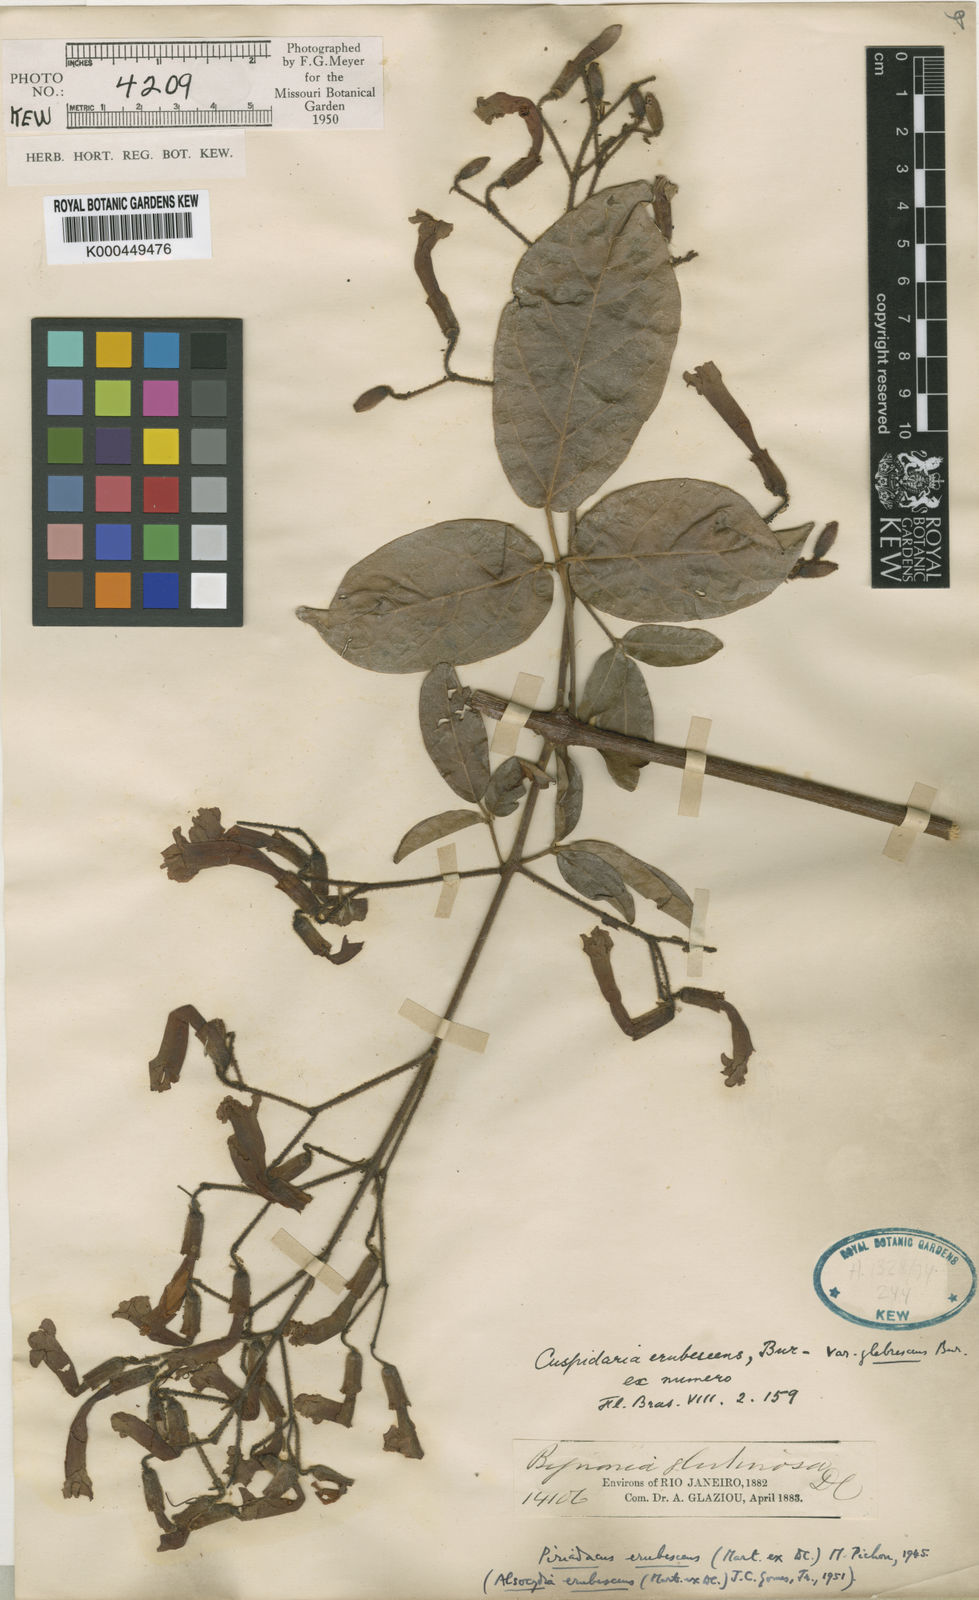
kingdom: Plantae
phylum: Tracheophyta
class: Magnoliopsida
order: Lamiales
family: Bignoniaceae
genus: Fridericia
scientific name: Fridericia erubescens
